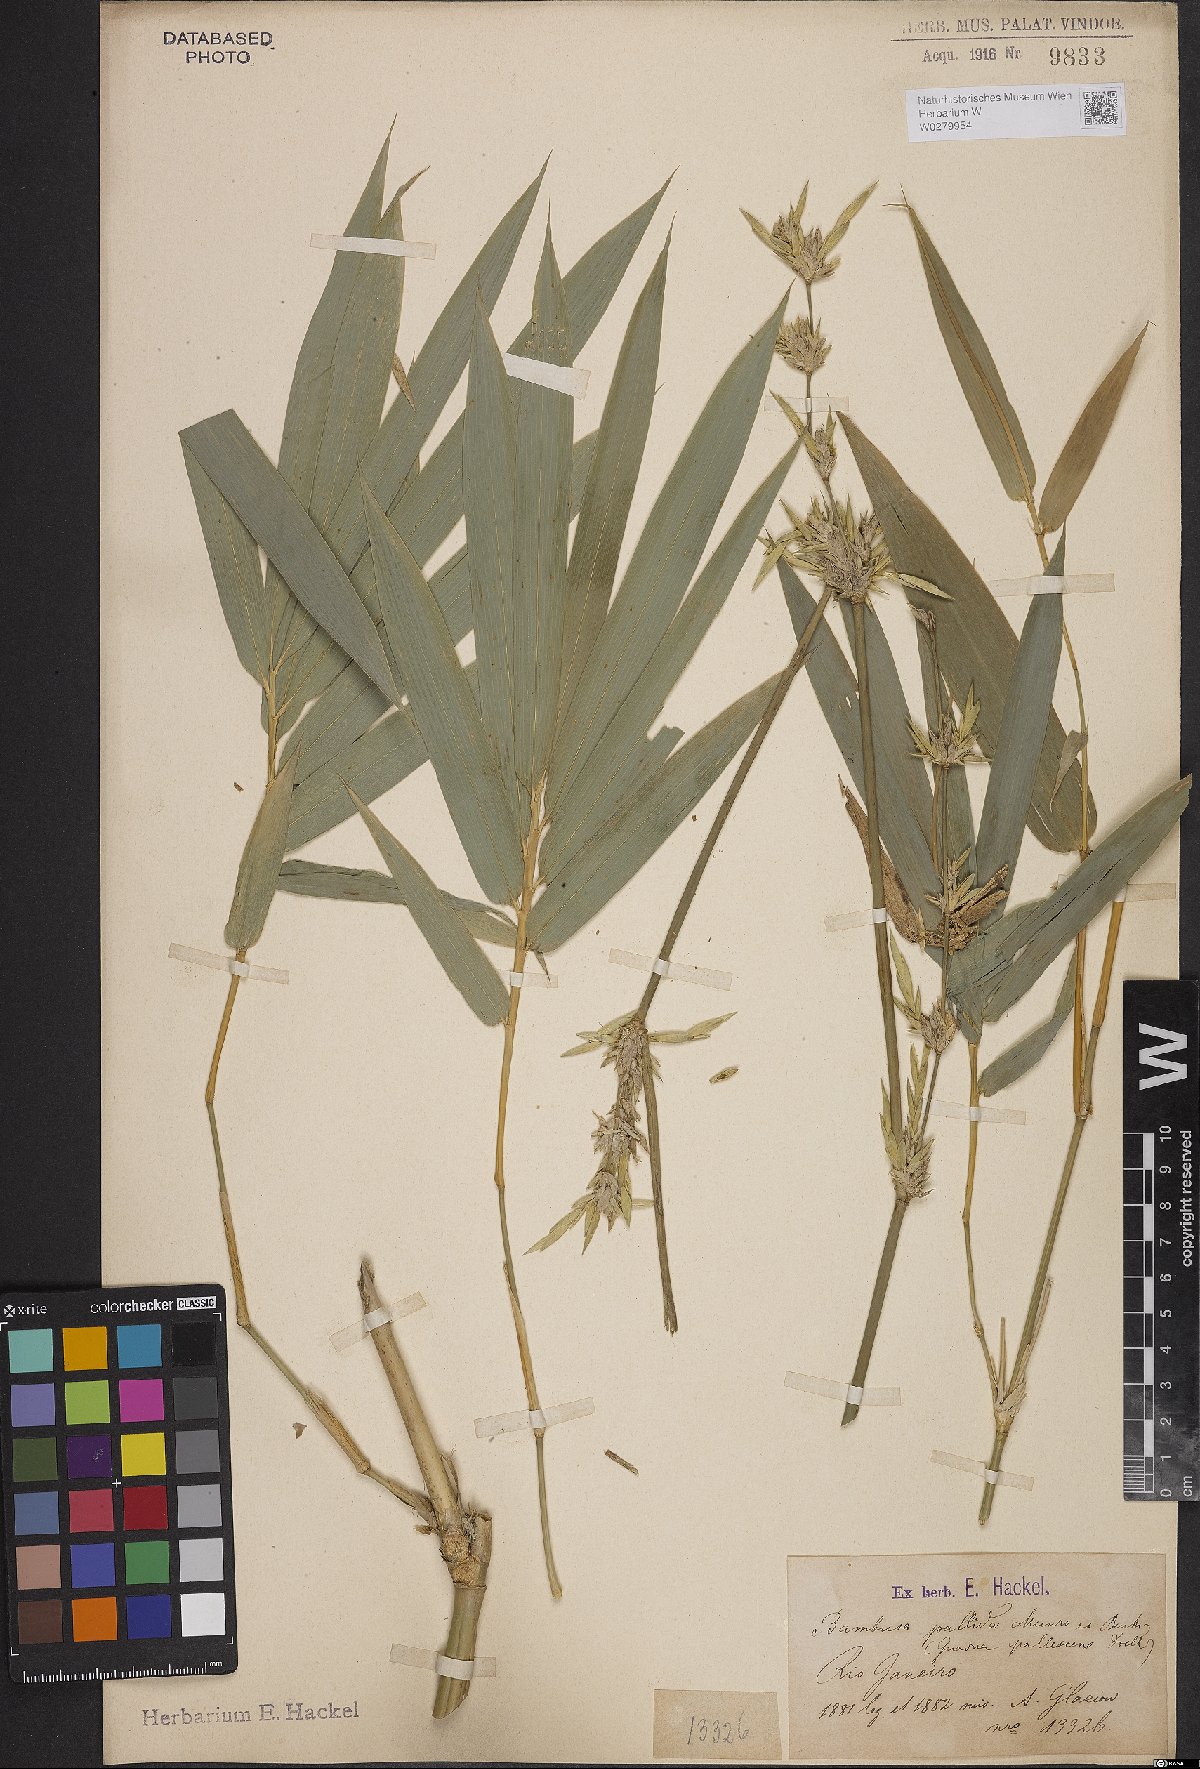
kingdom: Plantae
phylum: Tracheophyta
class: Liliopsida
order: Poales
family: Poaceae
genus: Bambusa
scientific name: Bambusa pallida
